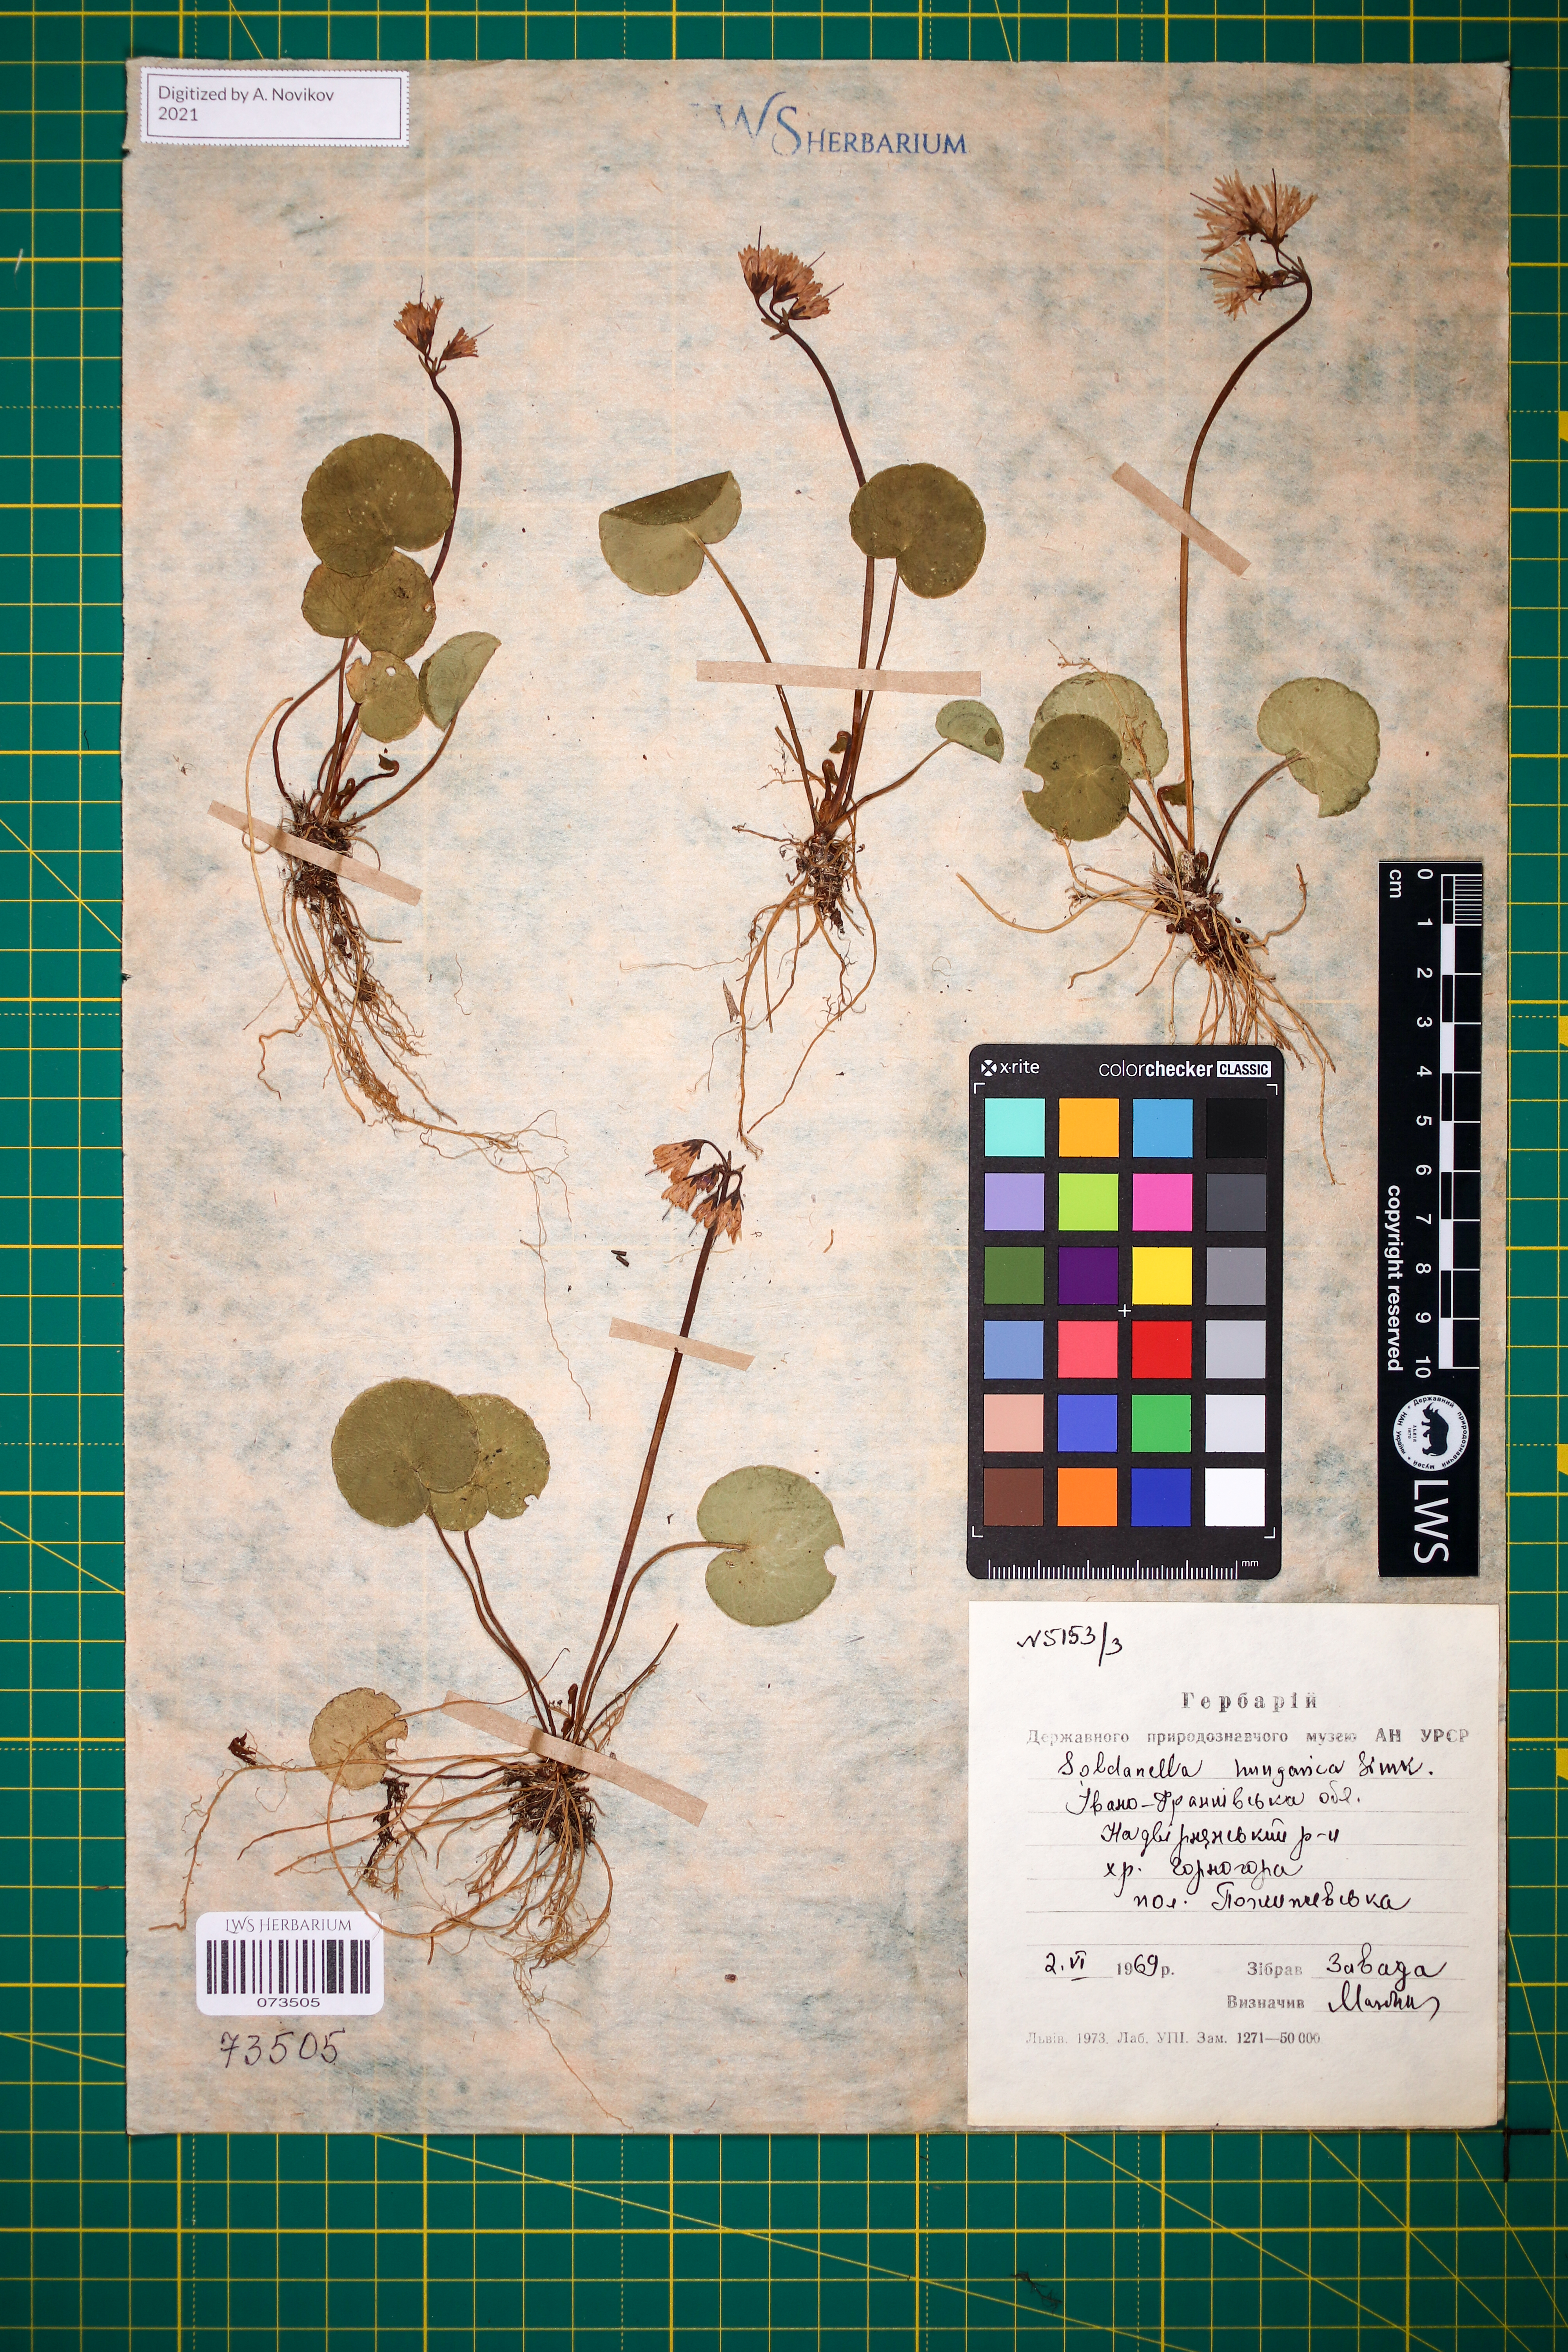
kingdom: Plantae
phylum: Tracheophyta
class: Magnoliopsida
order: Ericales
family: Primulaceae
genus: Soldanella
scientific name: Soldanella hungarica
